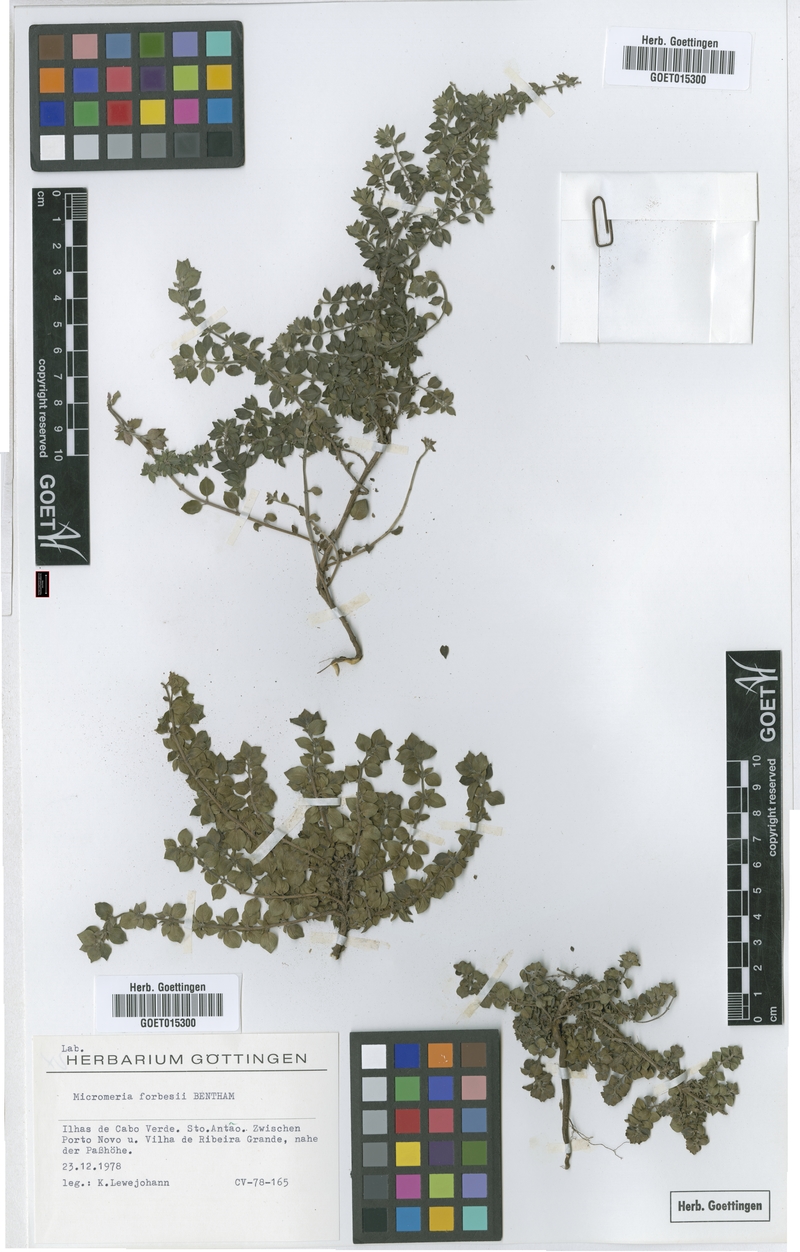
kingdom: Plantae
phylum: Tracheophyta
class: Magnoliopsida
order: Lamiales
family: Lamiaceae
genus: Micromeria
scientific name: Micromeria forbesii
